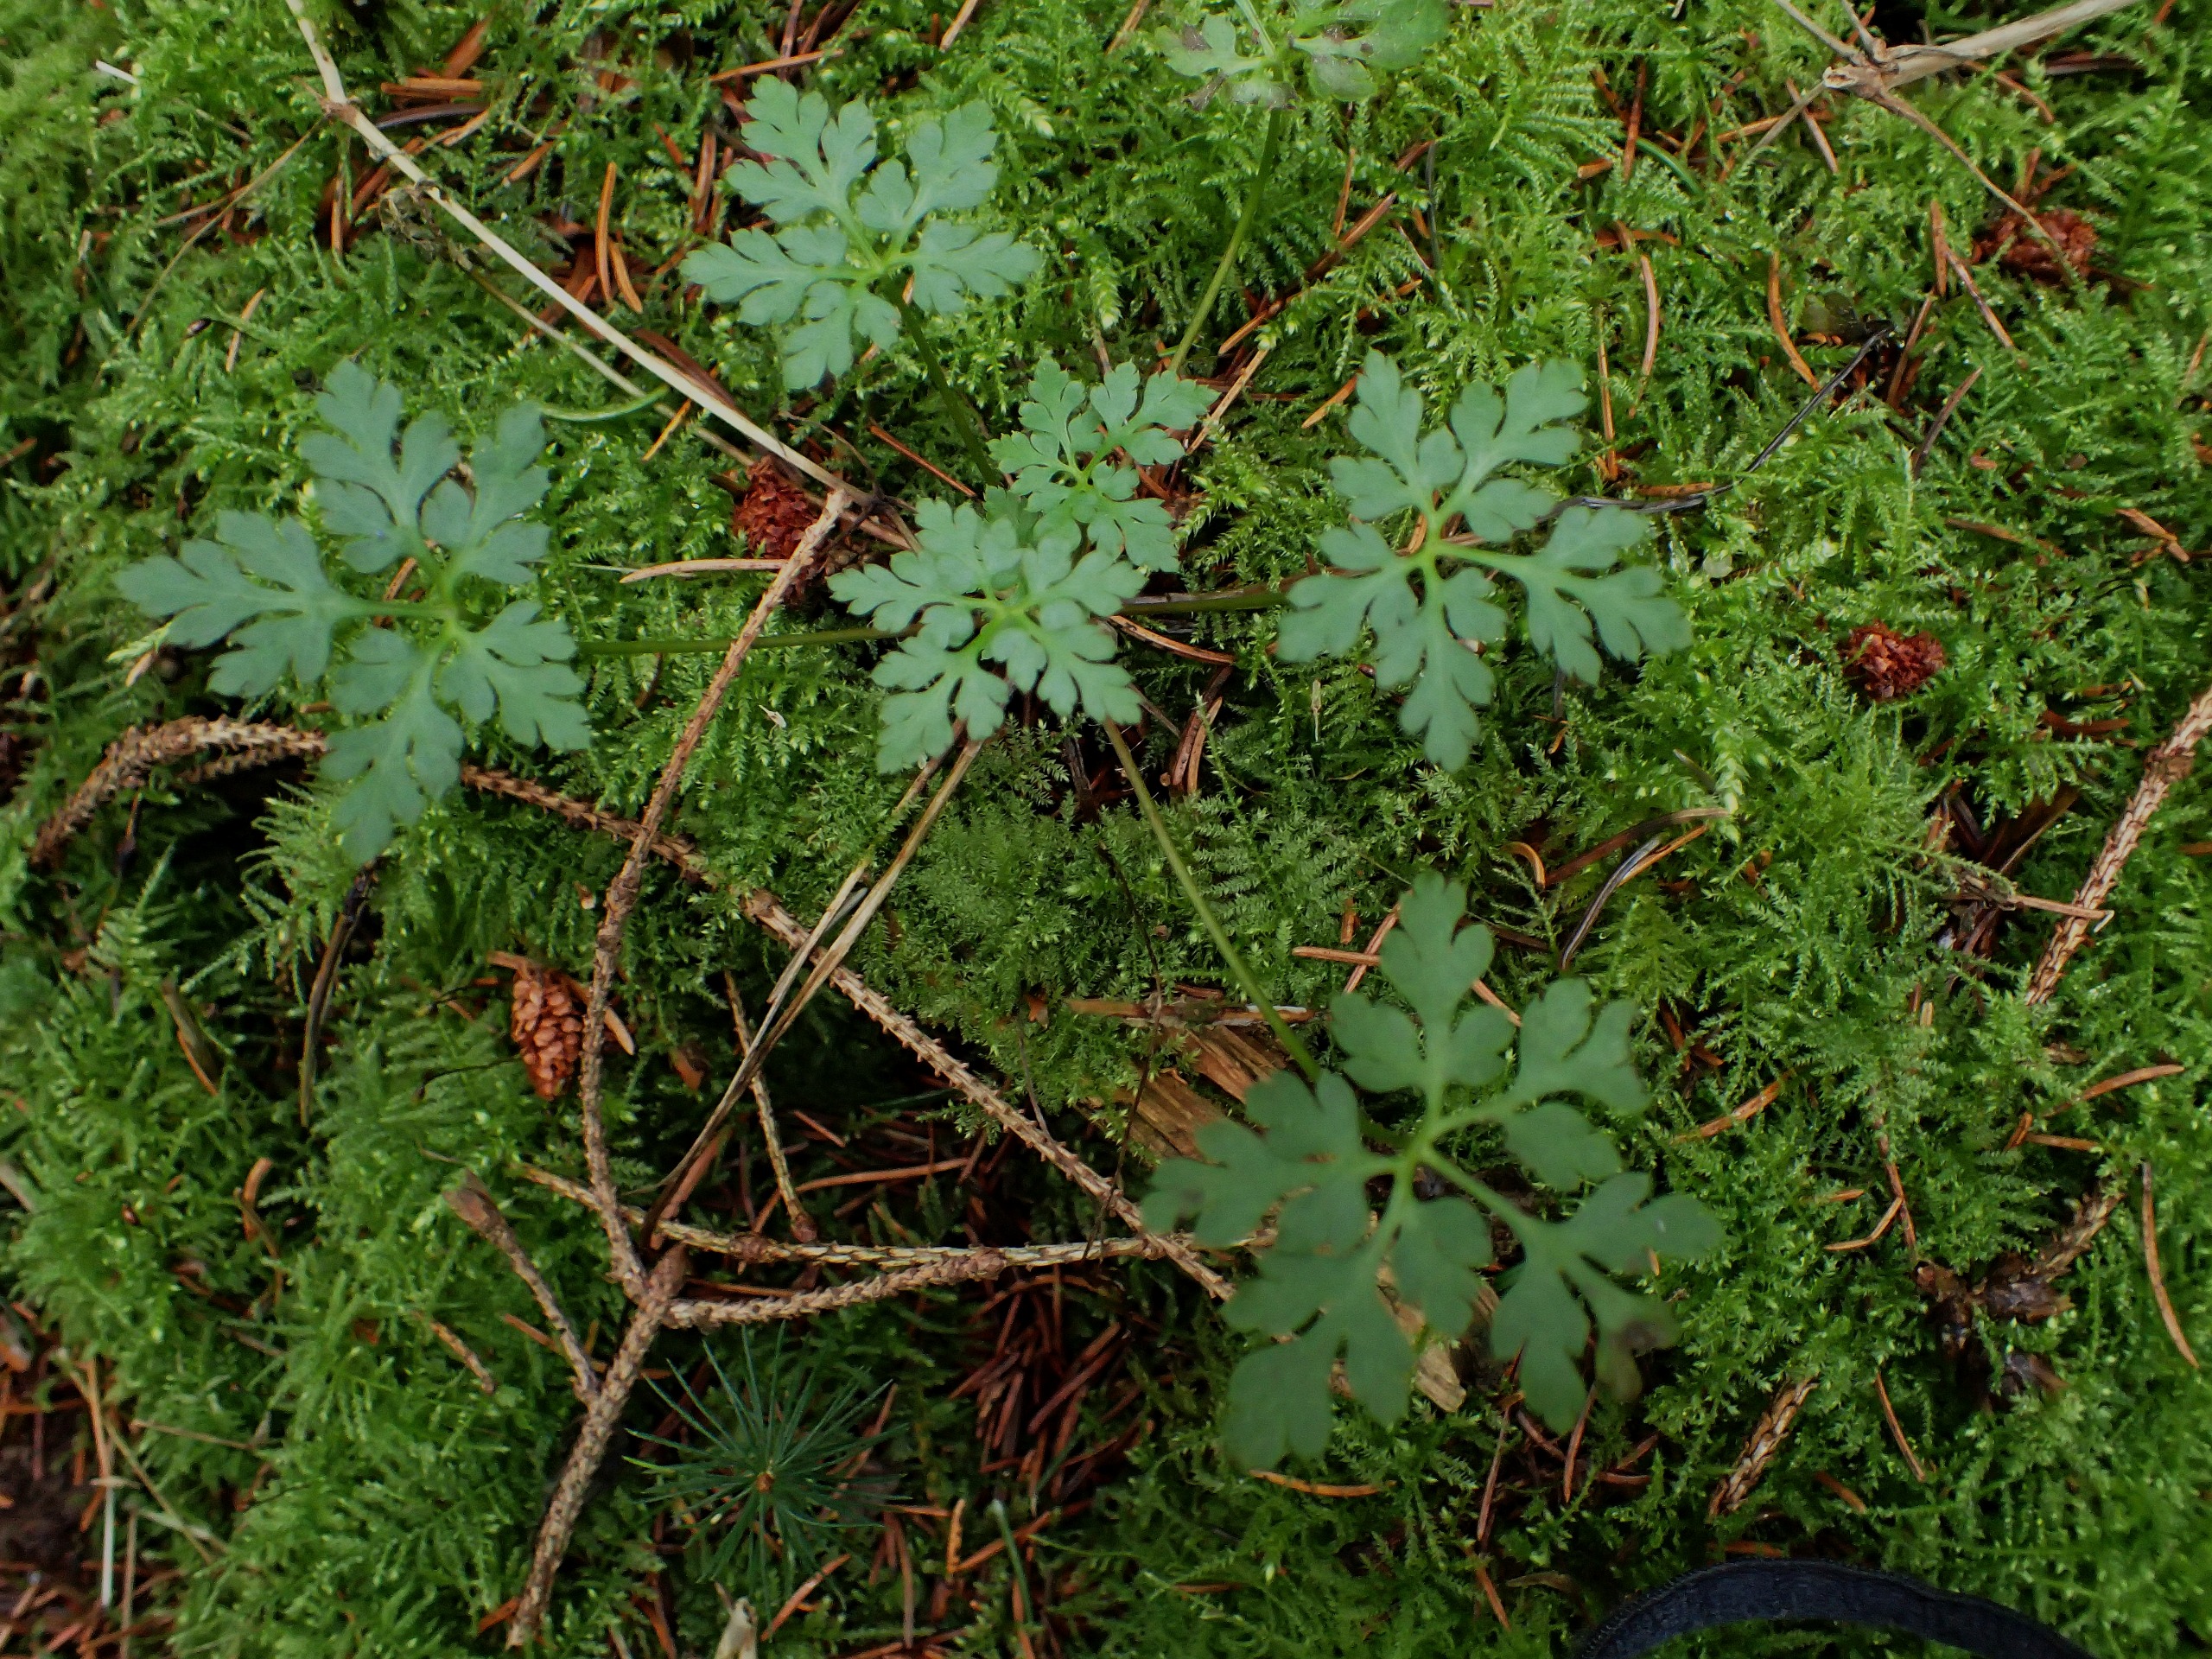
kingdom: Plantae
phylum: Tracheophyta
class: Magnoliopsida
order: Geraniales
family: Geraniaceae
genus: Geranium
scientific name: Geranium robertianum
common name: Stinkende storkenæb
